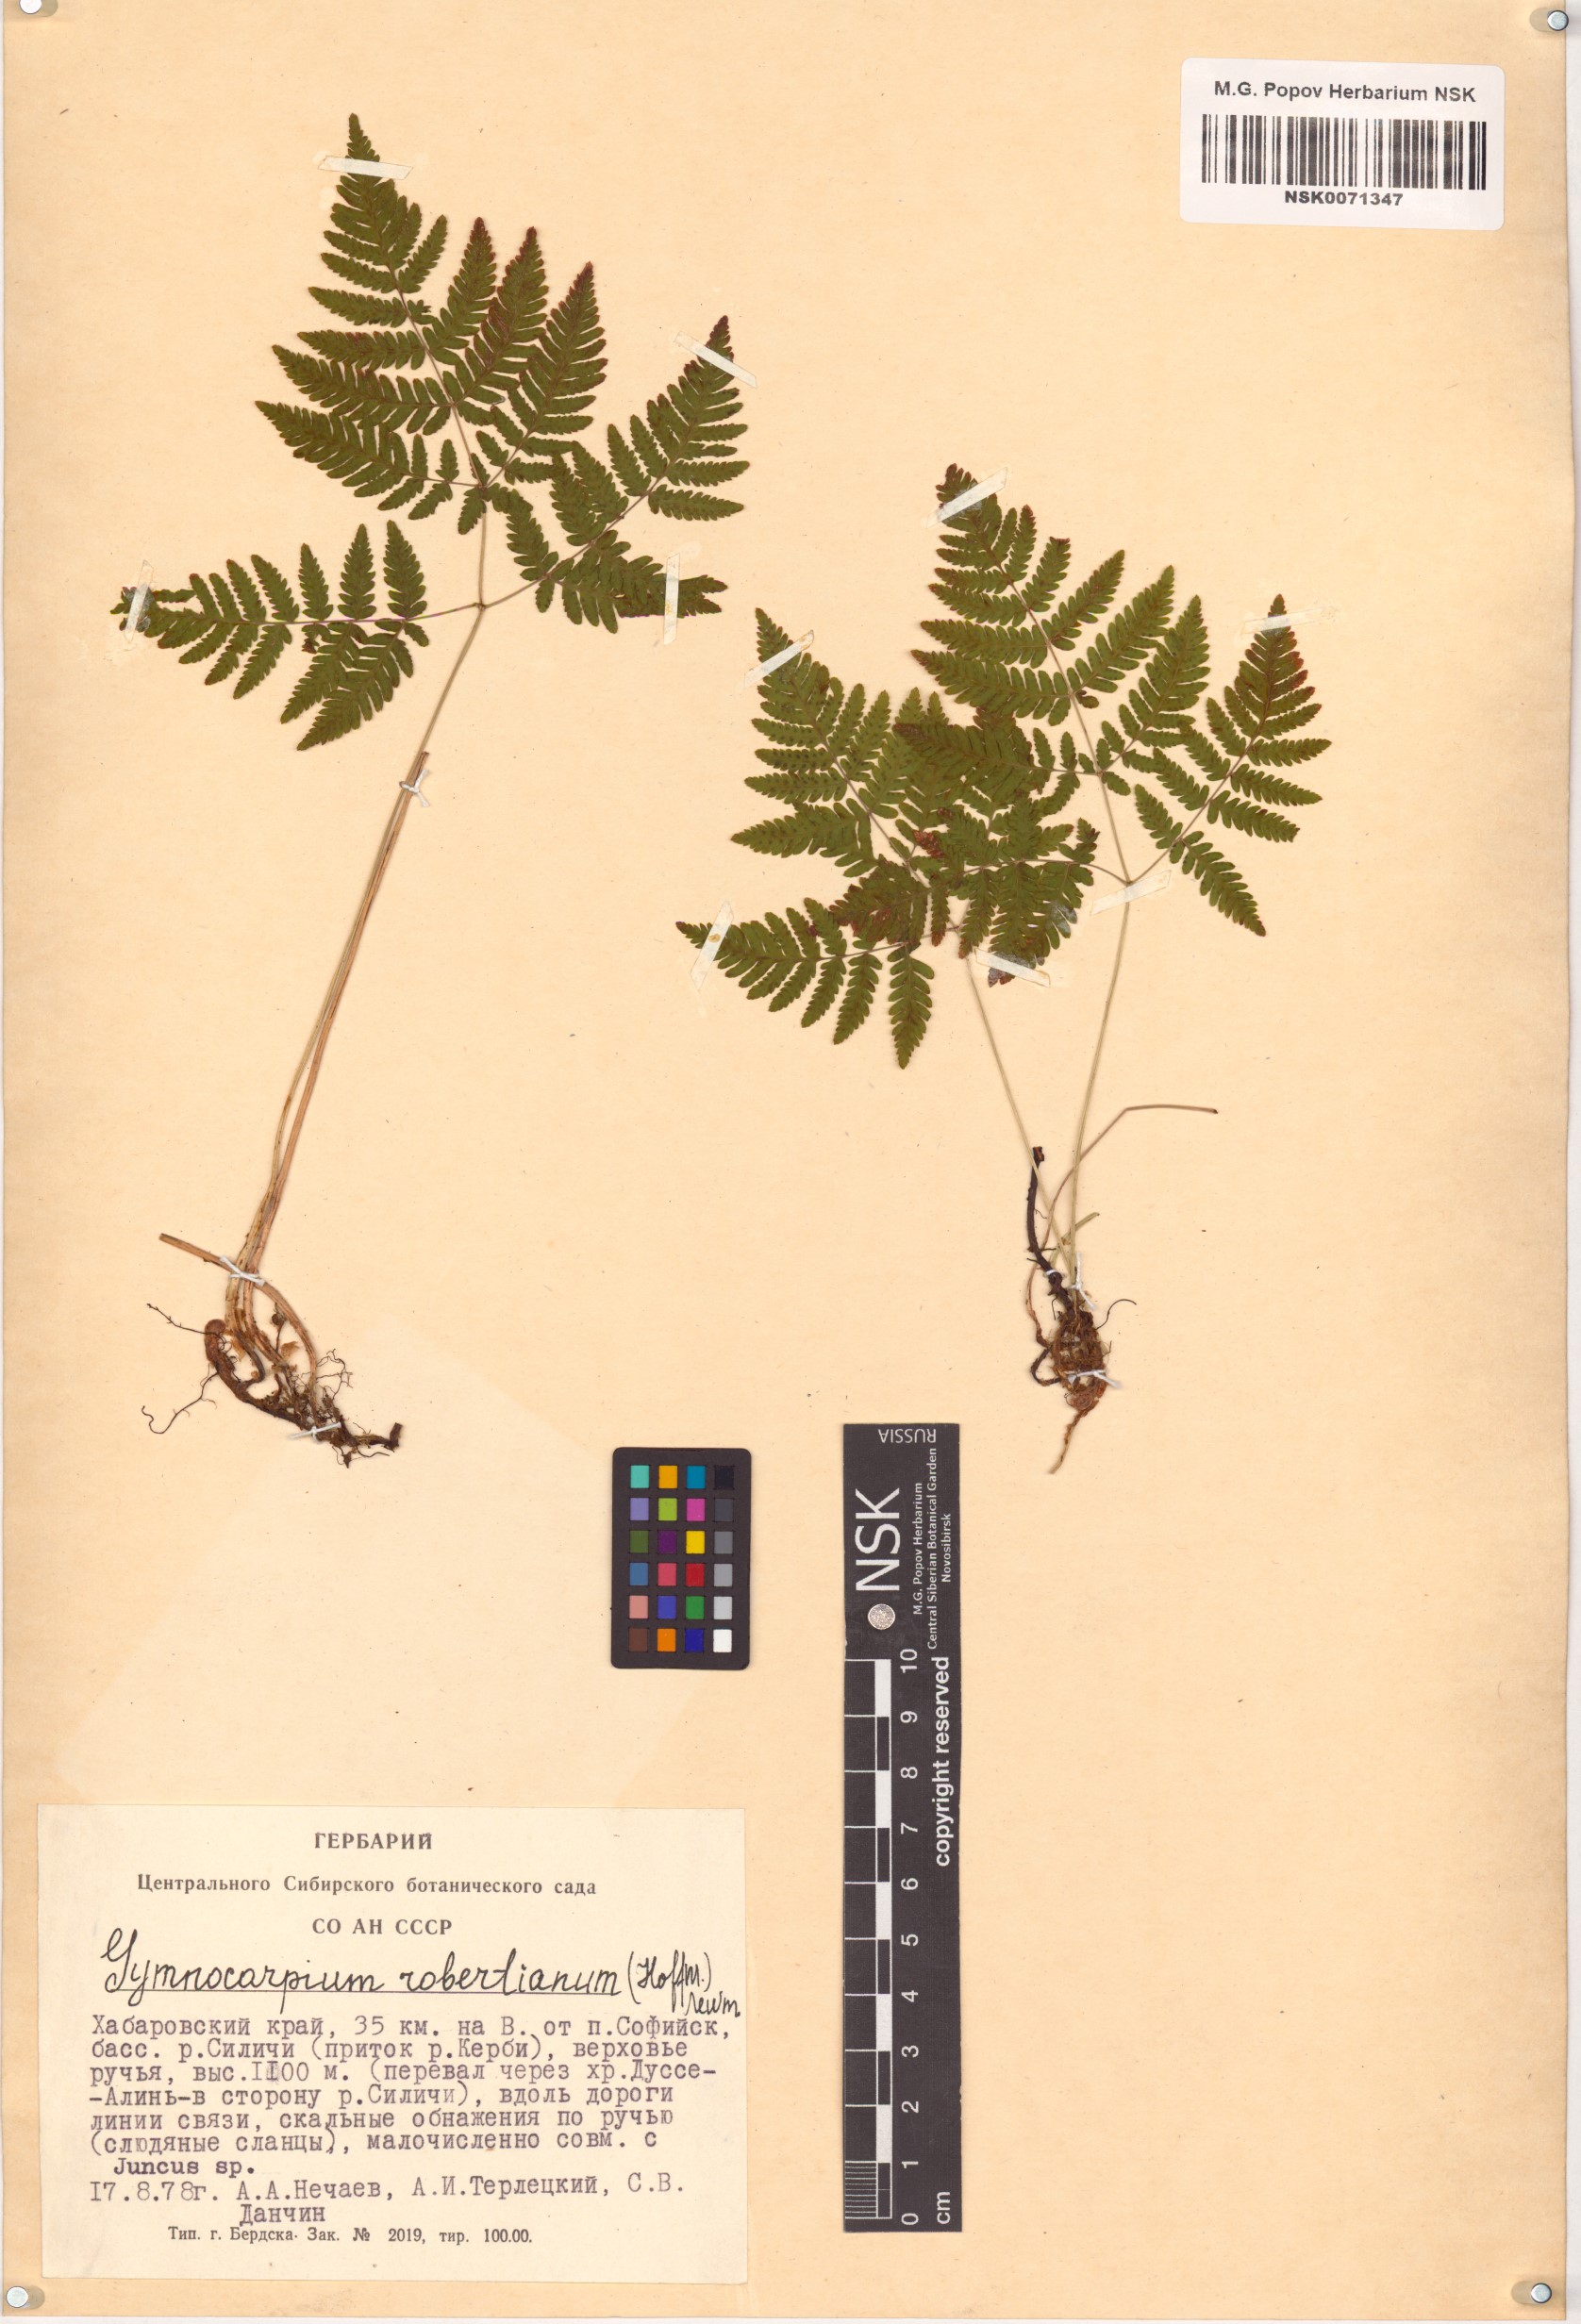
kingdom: Plantae
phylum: Tracheophyta
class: Polypodiopsida
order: Polypodiales
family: Cystopteridaceae
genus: Gymnocarpium
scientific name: Gymnocarpium robertianum
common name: Limestone fern
